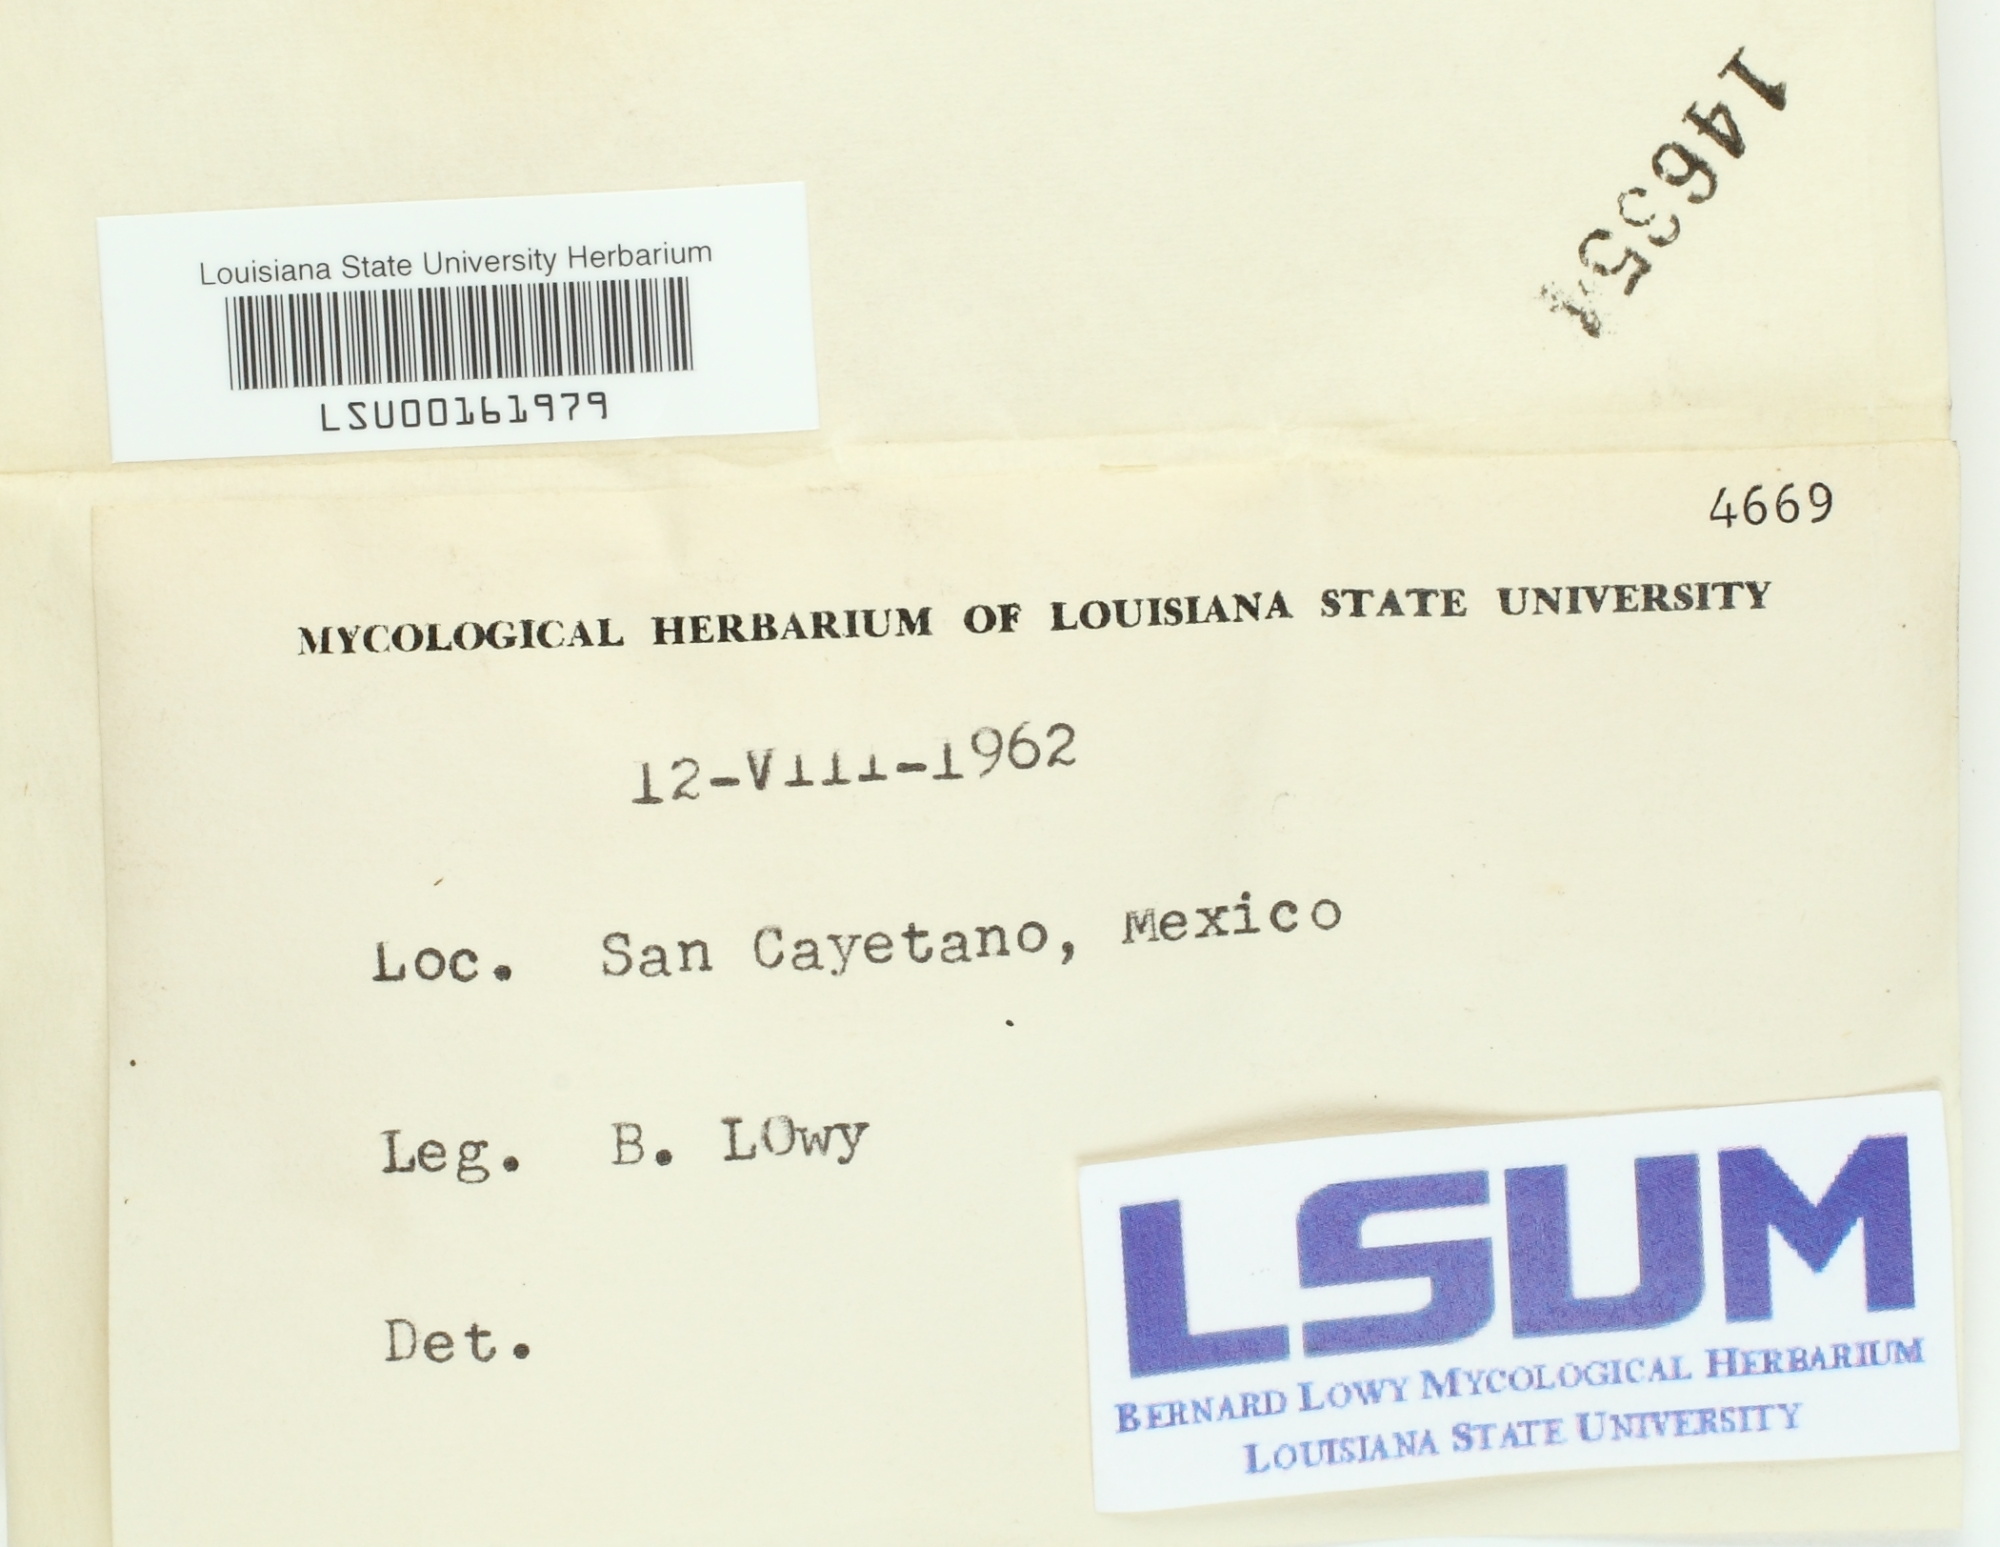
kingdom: Fungi
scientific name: Fungi
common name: Fungi
